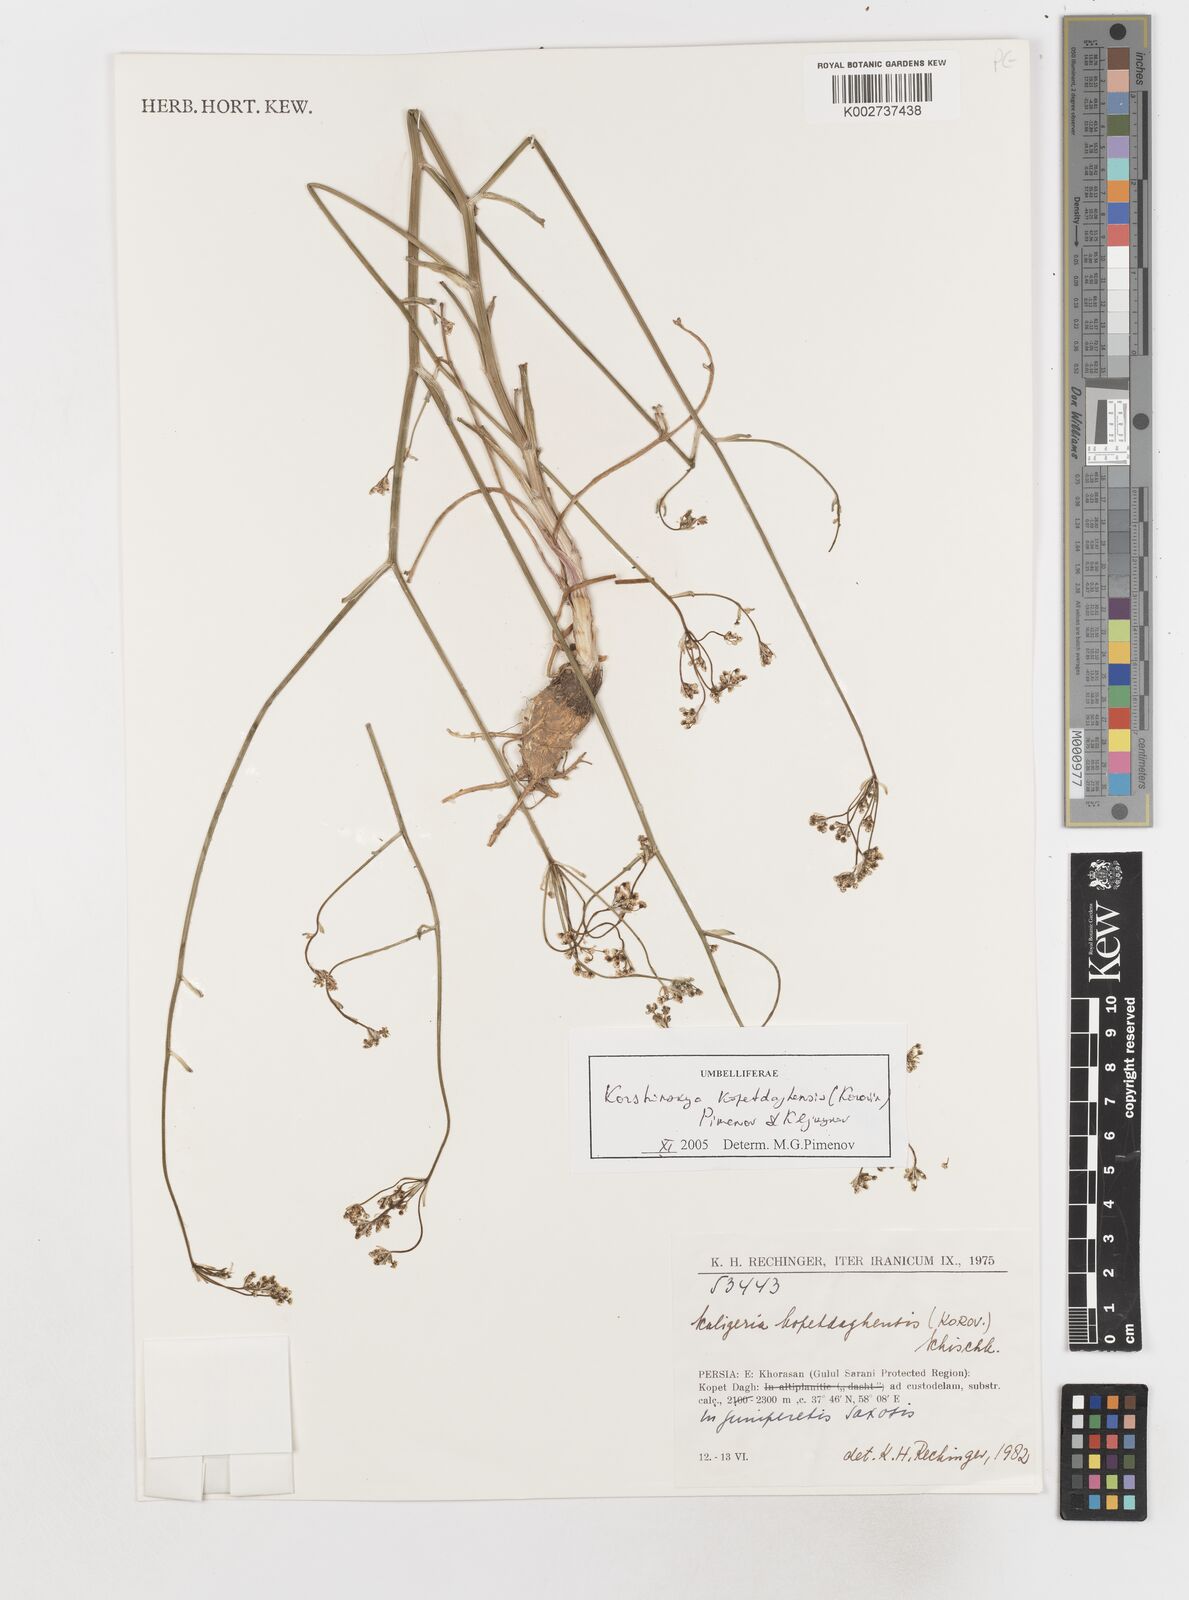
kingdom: Plantae
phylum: Tracheophyta
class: Magnoliopsida
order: Apiales
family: Apiaceae
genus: Pseudotrachydium
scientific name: Pseudotrachydium kopetdagense
